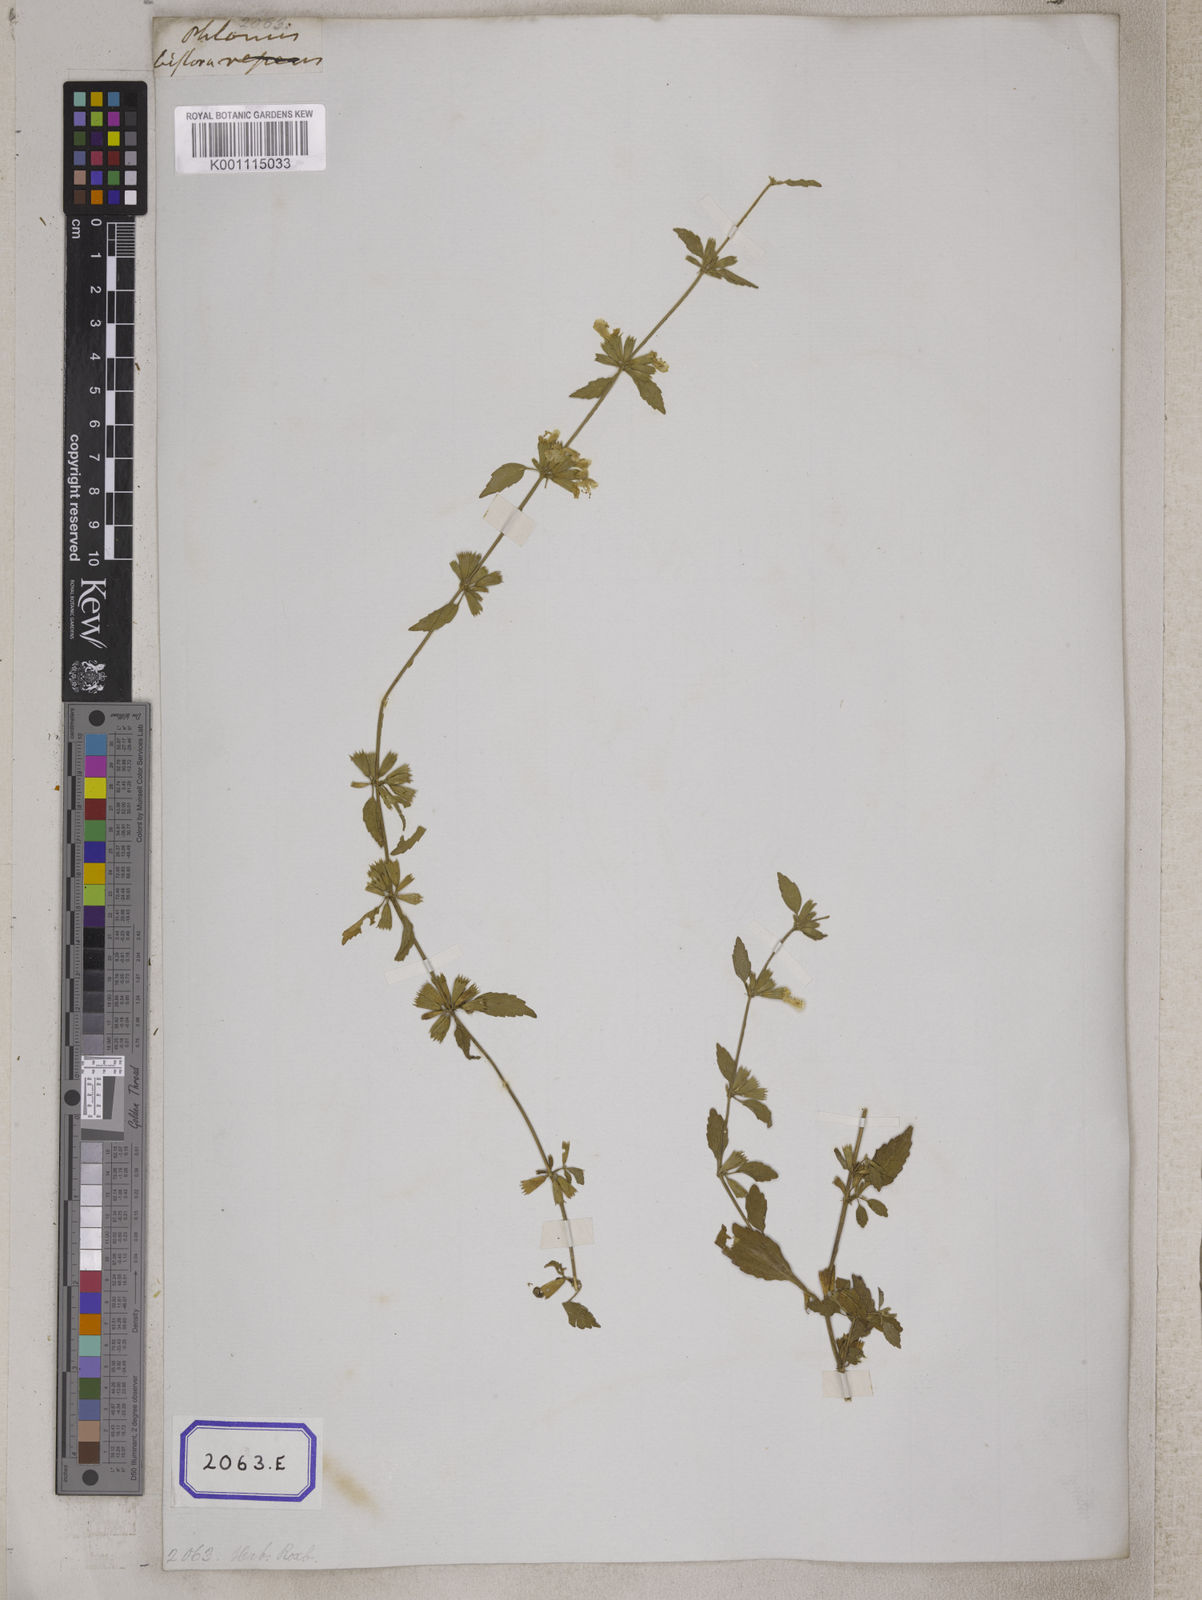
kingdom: Plantae
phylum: Tracheophyta
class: Magnoliopsida
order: Lamiales
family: Lamiaceae
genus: Leucas
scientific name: Leucas
